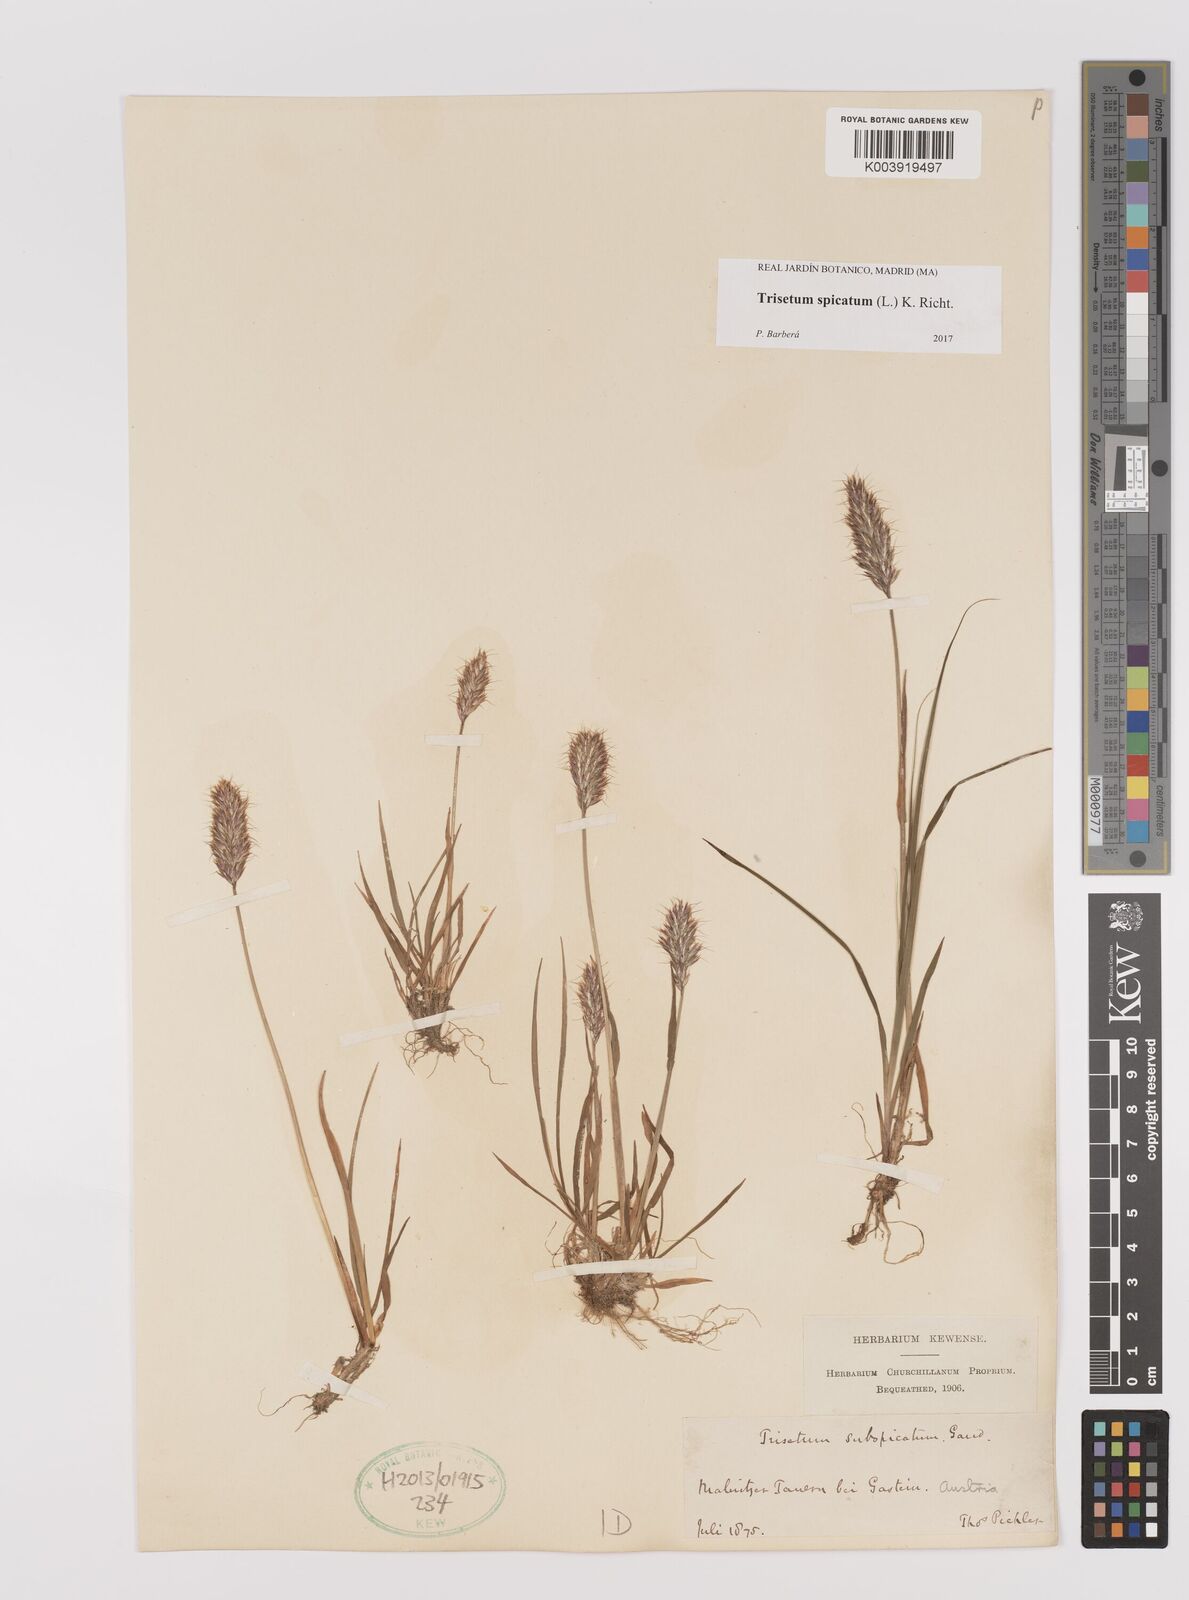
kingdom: Plantae
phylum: Tracheophyta
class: Liliopsida
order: Poales
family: Poaceae
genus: Koeleria
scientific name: Koeleria spicata
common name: Mountain trisetum
